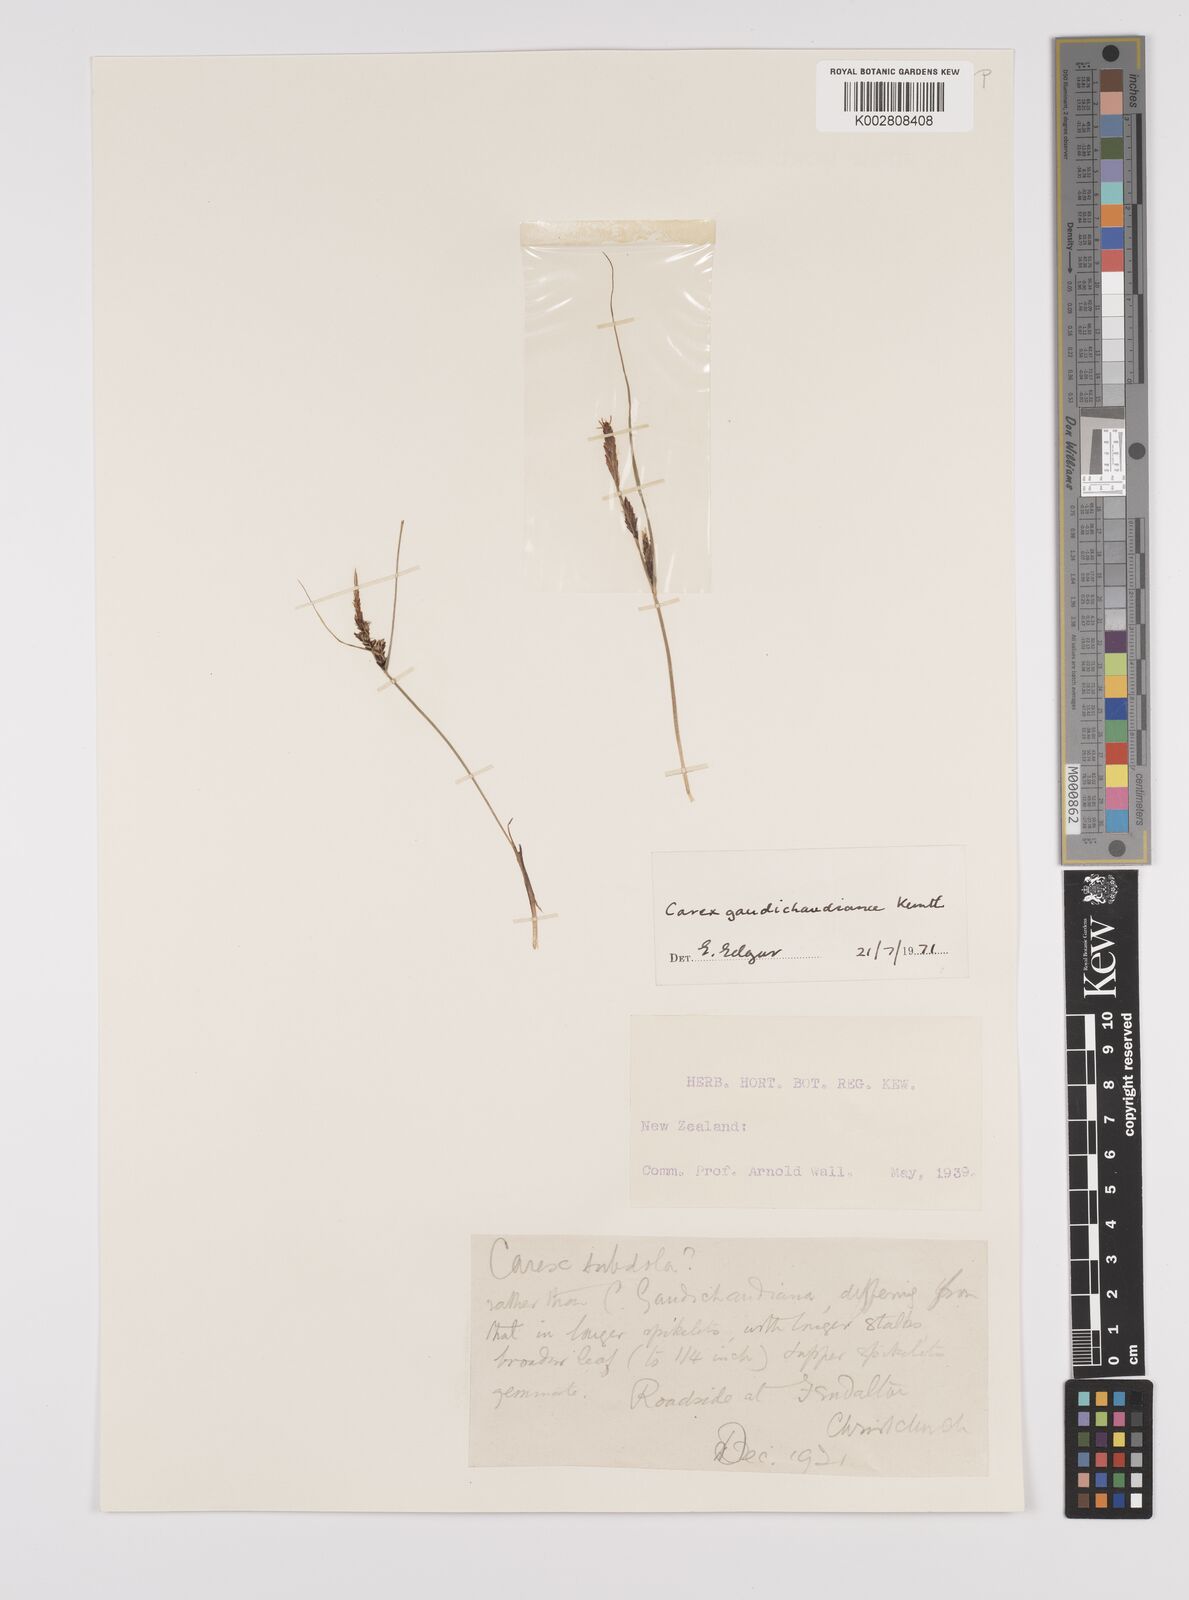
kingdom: Plantae
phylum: Tracheophyta
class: Liliopsida
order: Poales
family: Cyperaceae
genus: Carex
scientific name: Carex gaudichaudiana
